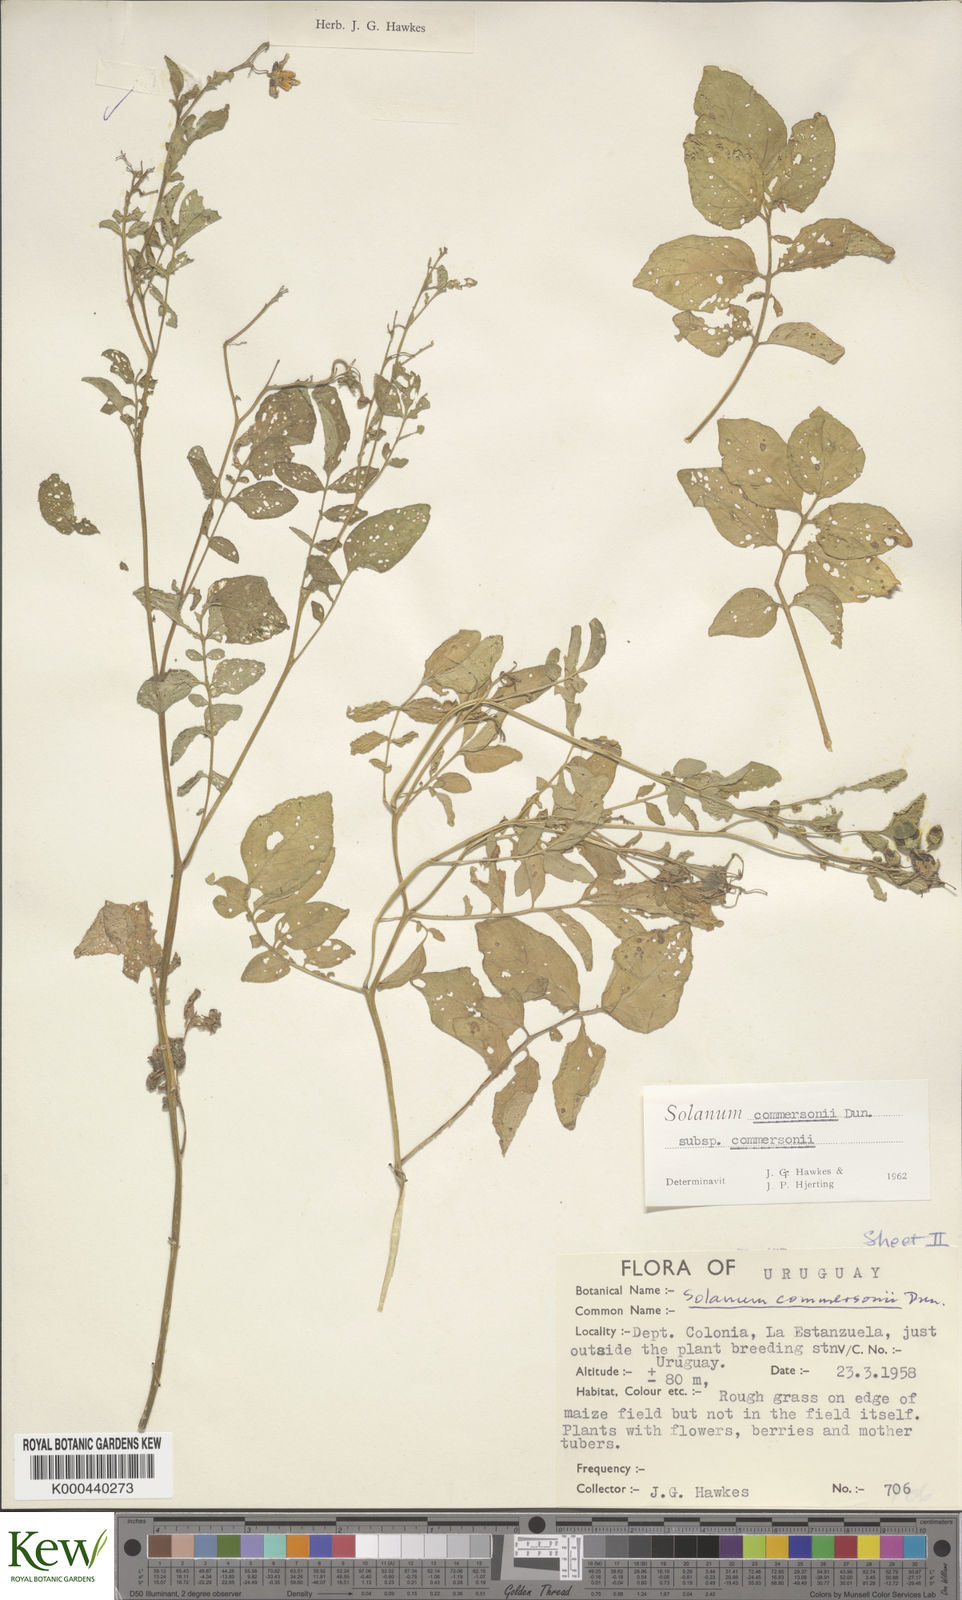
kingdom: Plantae
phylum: Tracheophyta
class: Magnoliopsida
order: Solanales
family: Solanaceae
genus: Solanum
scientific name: Solanum commersonii
